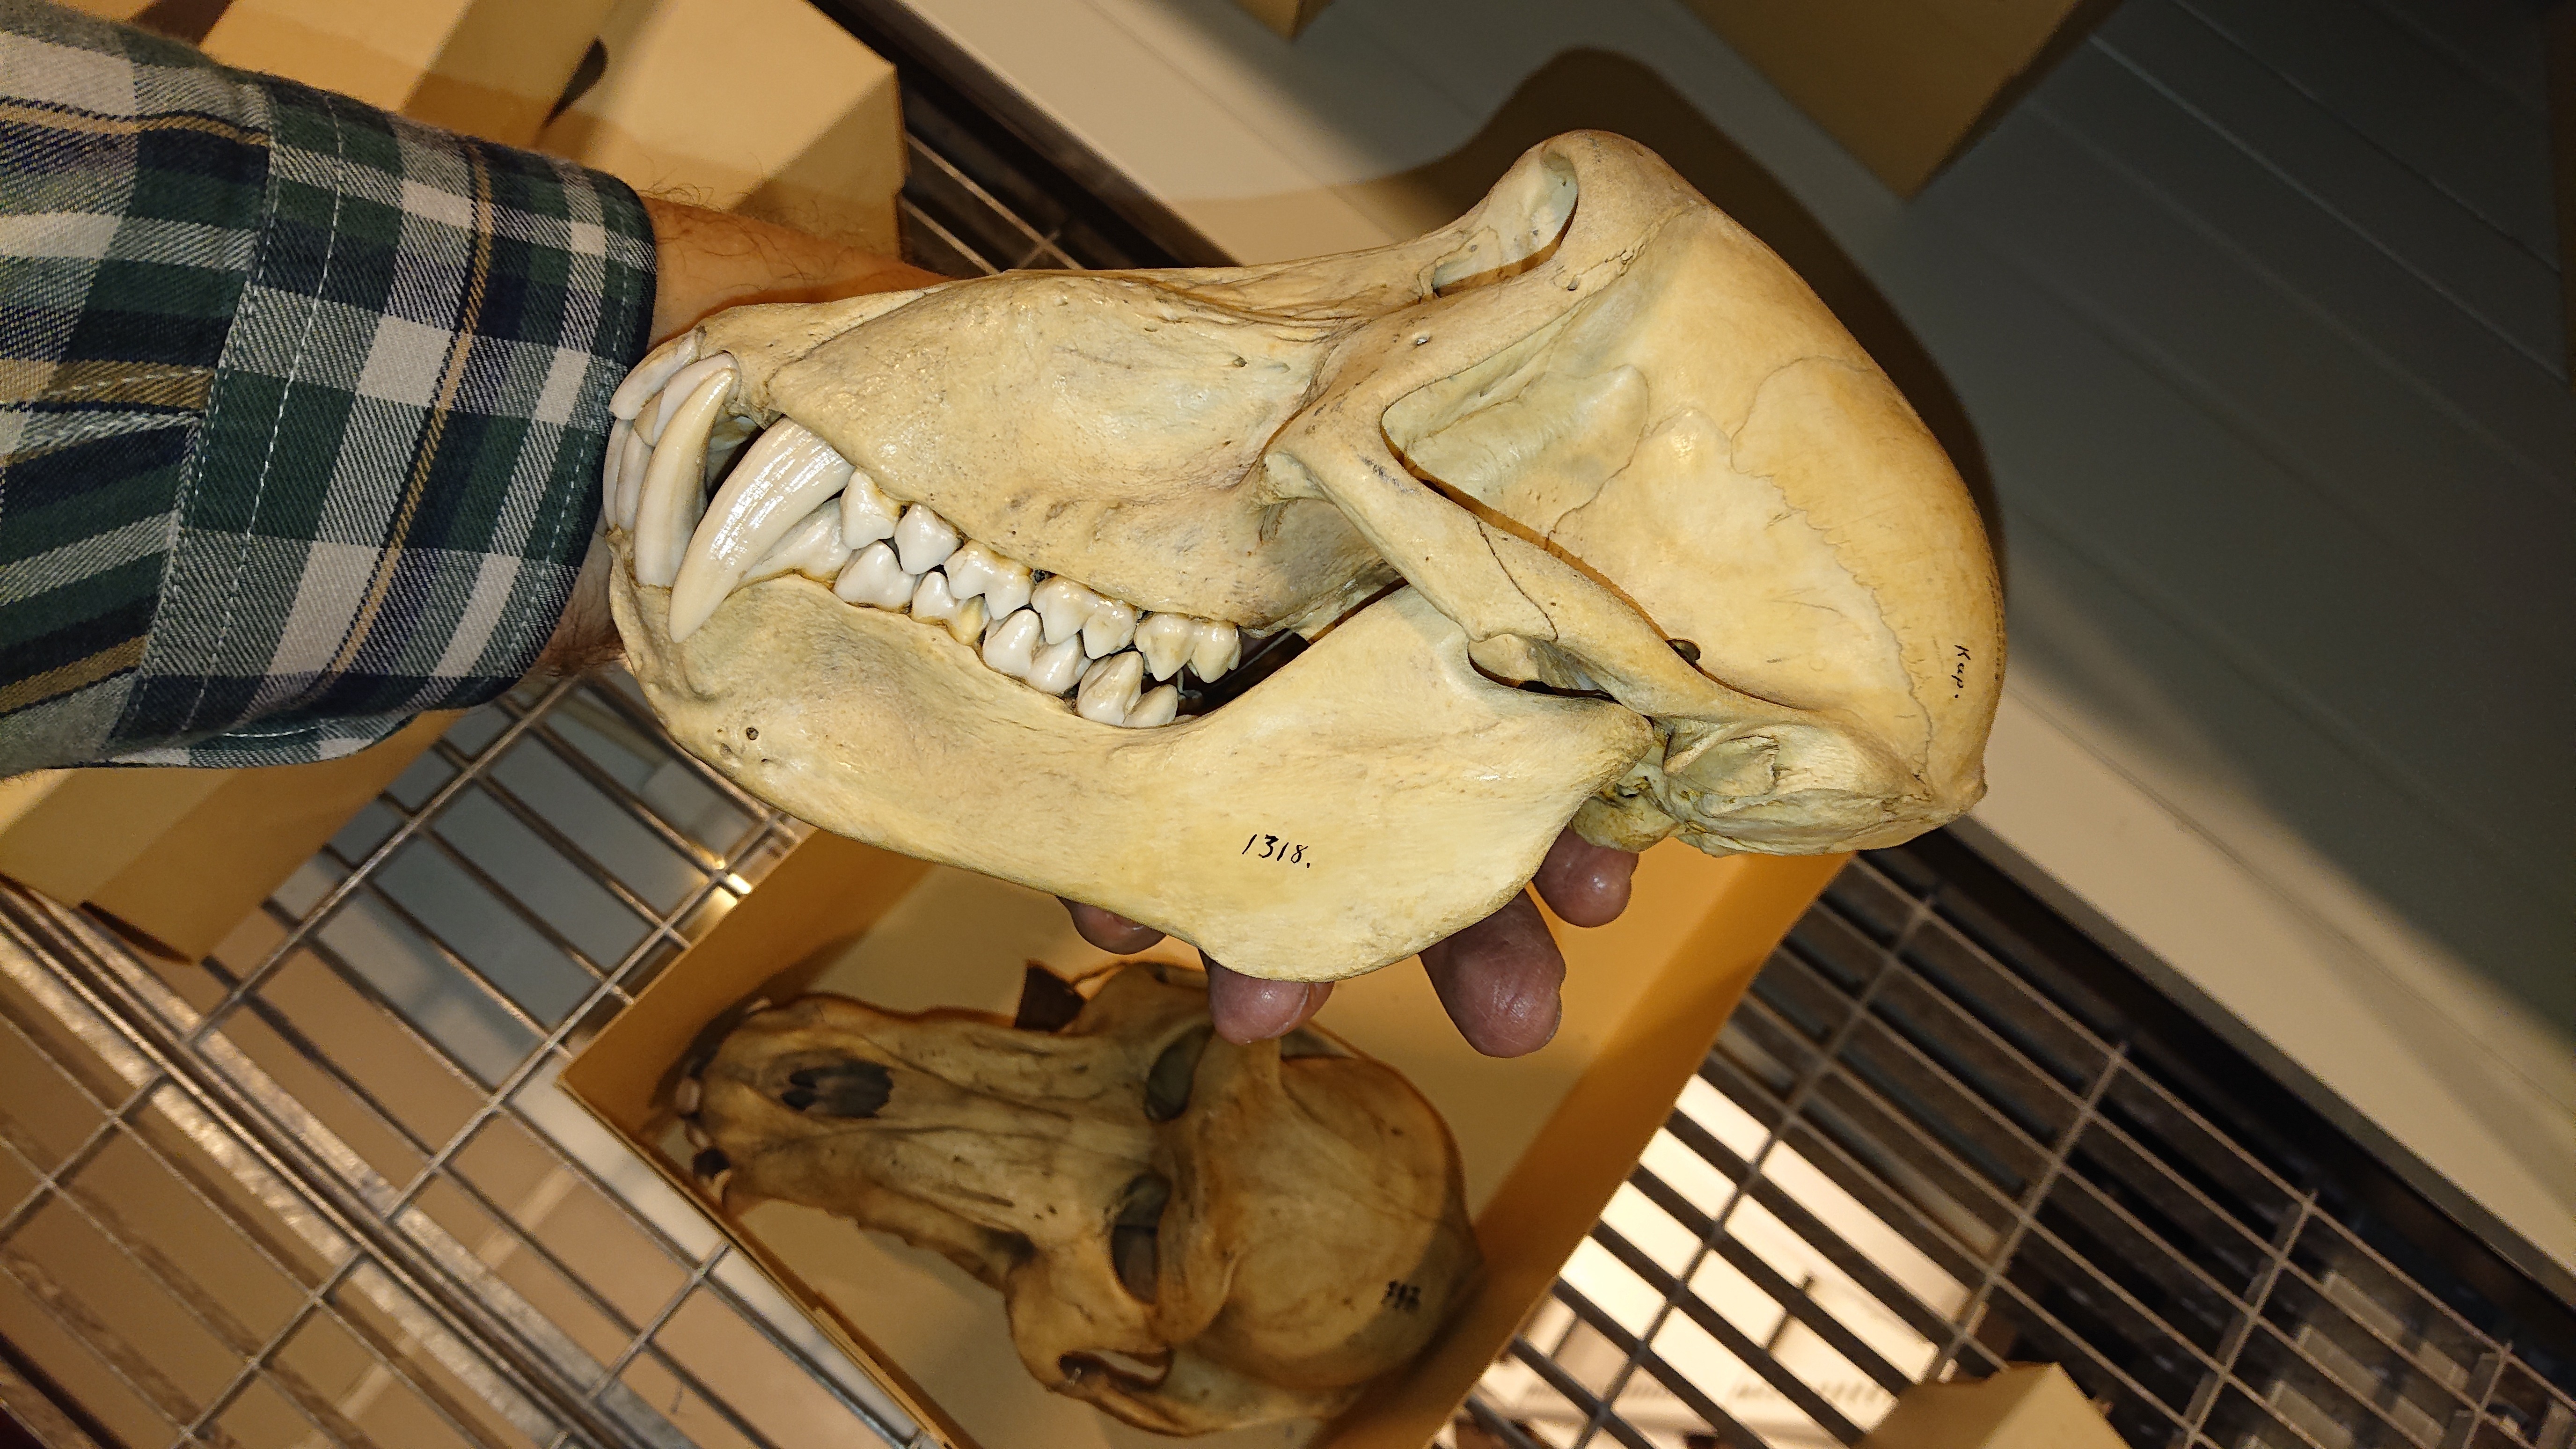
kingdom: Animalia
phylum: Chordata
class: Mammalia
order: Primates
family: Cercopithecidae
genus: Papio
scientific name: Papio ursinus
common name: Chacma baboon
